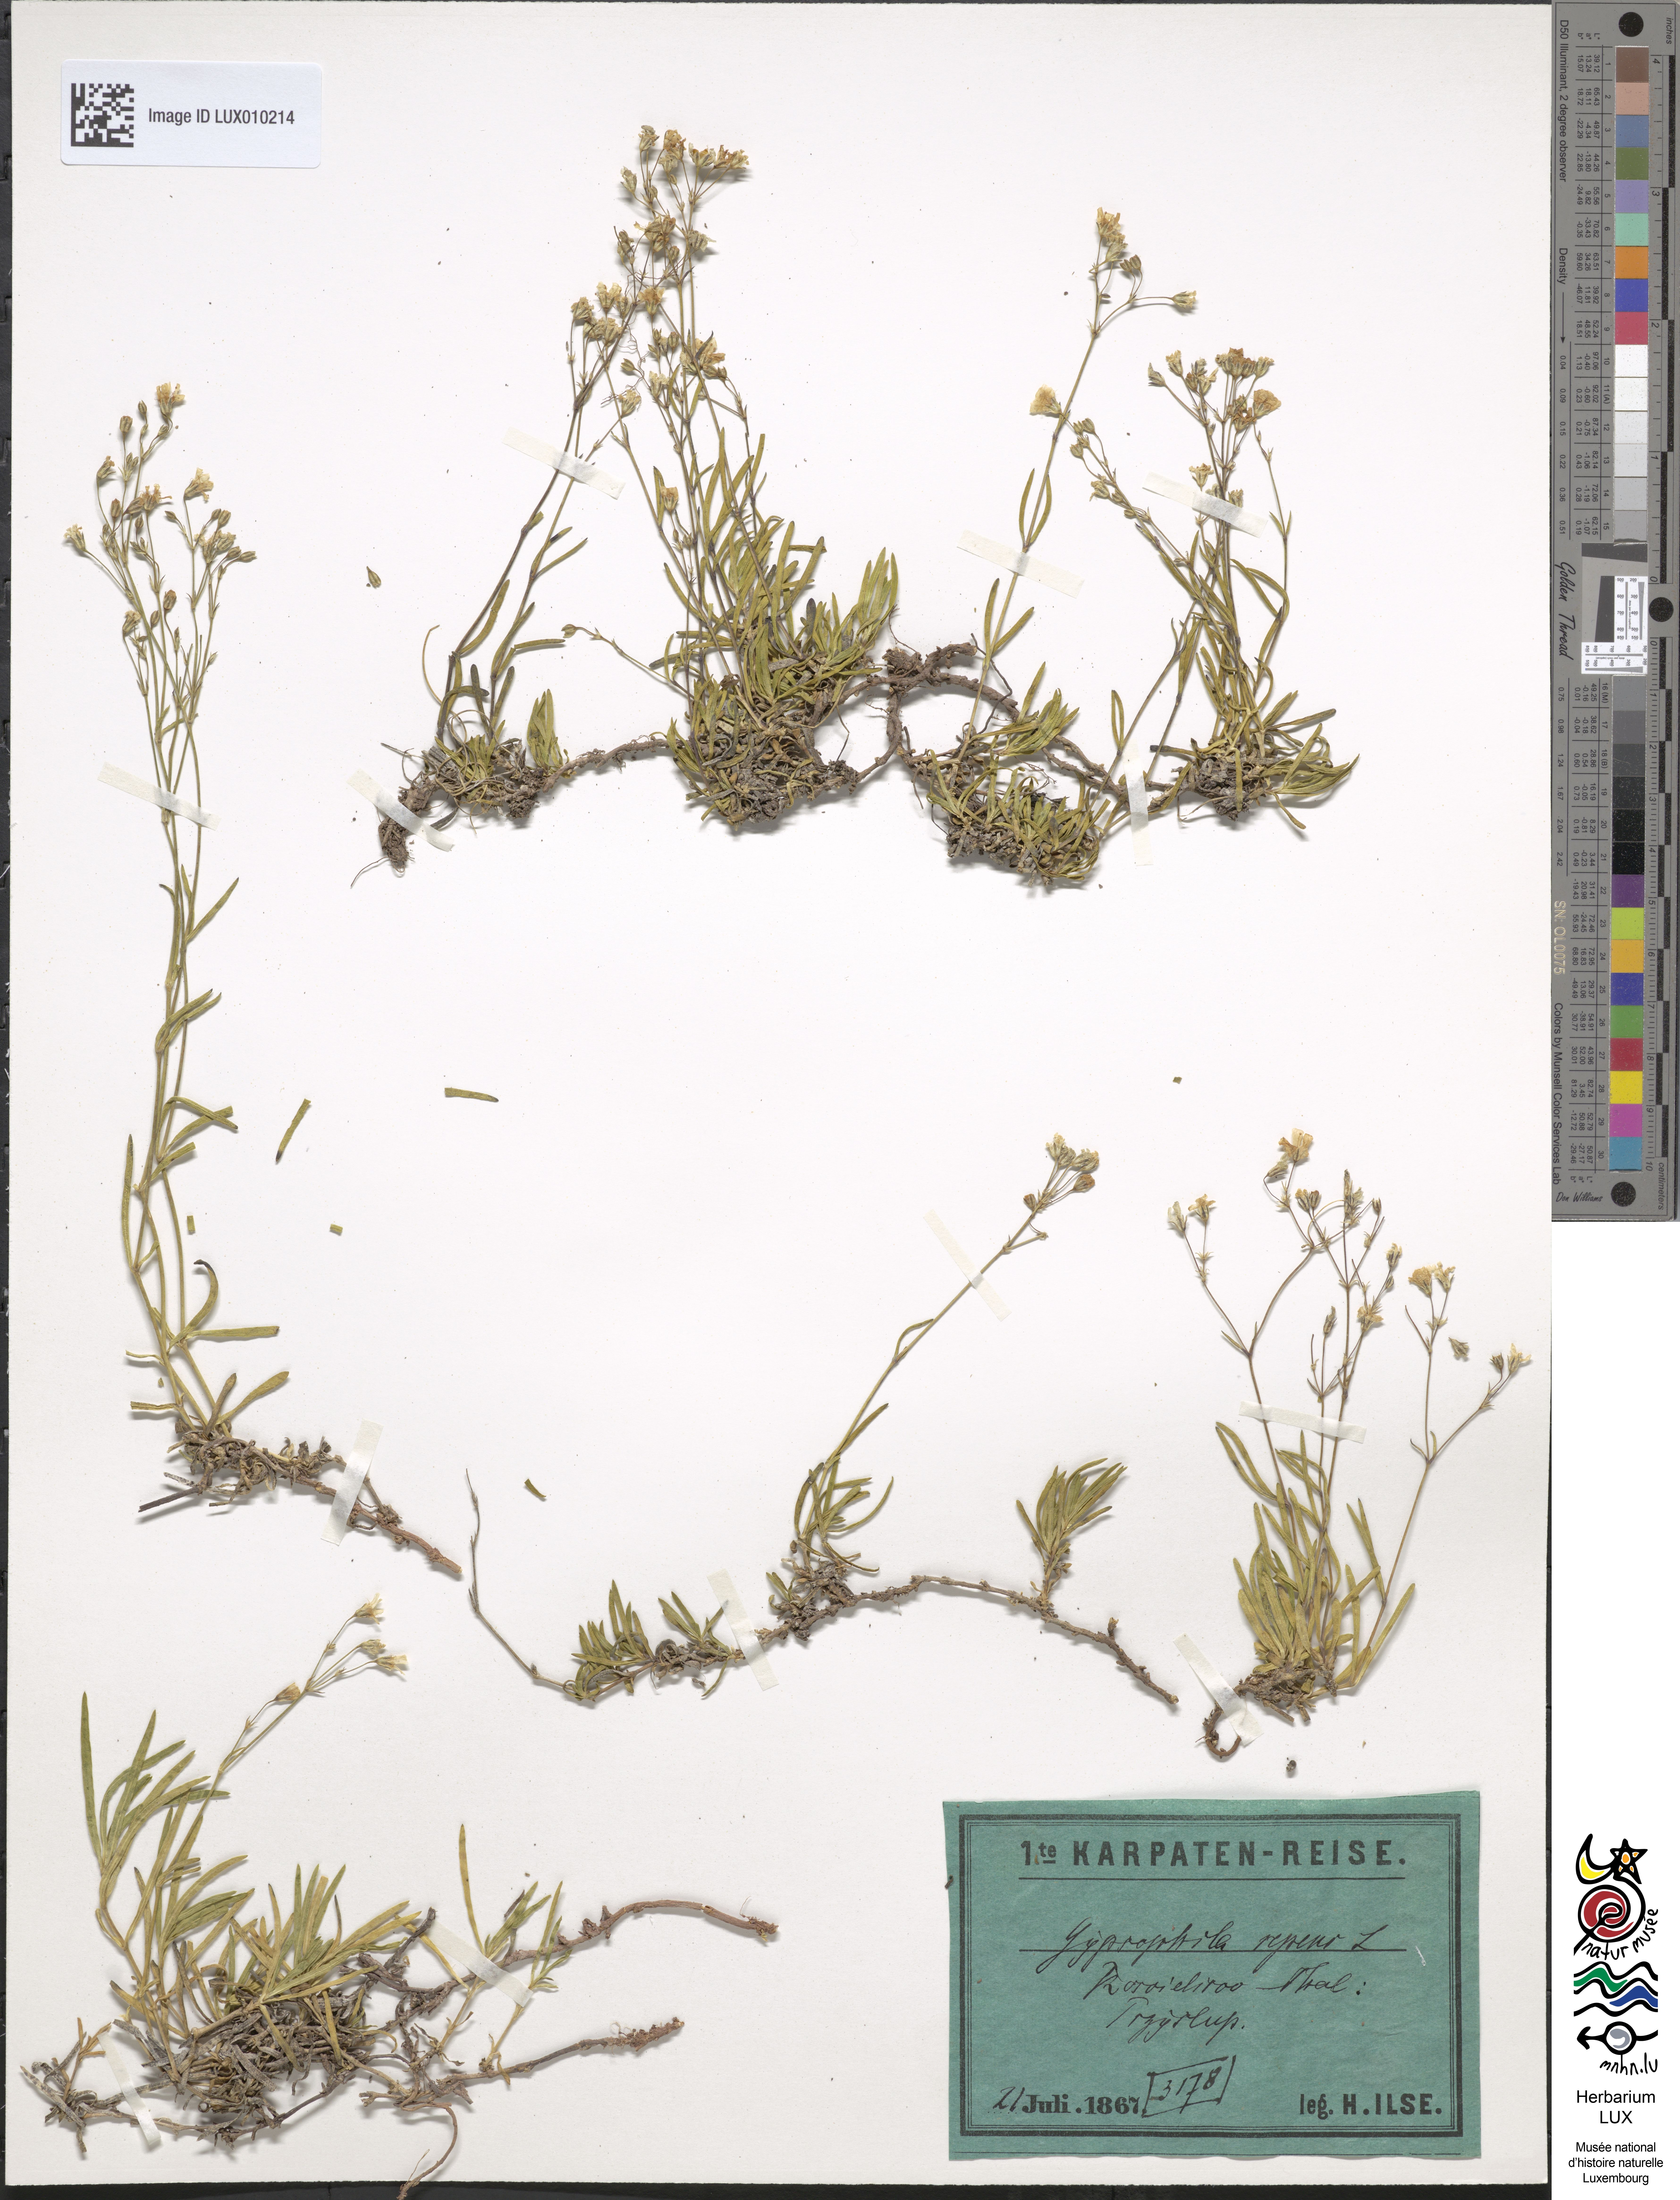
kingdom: Plantae
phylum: Tracheophyta
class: Magnoliopsida
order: Caryophyllales
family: Caryophyllaceae
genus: Gypsophila
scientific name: Gypsophila repens
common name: Creeping baby's-breath
